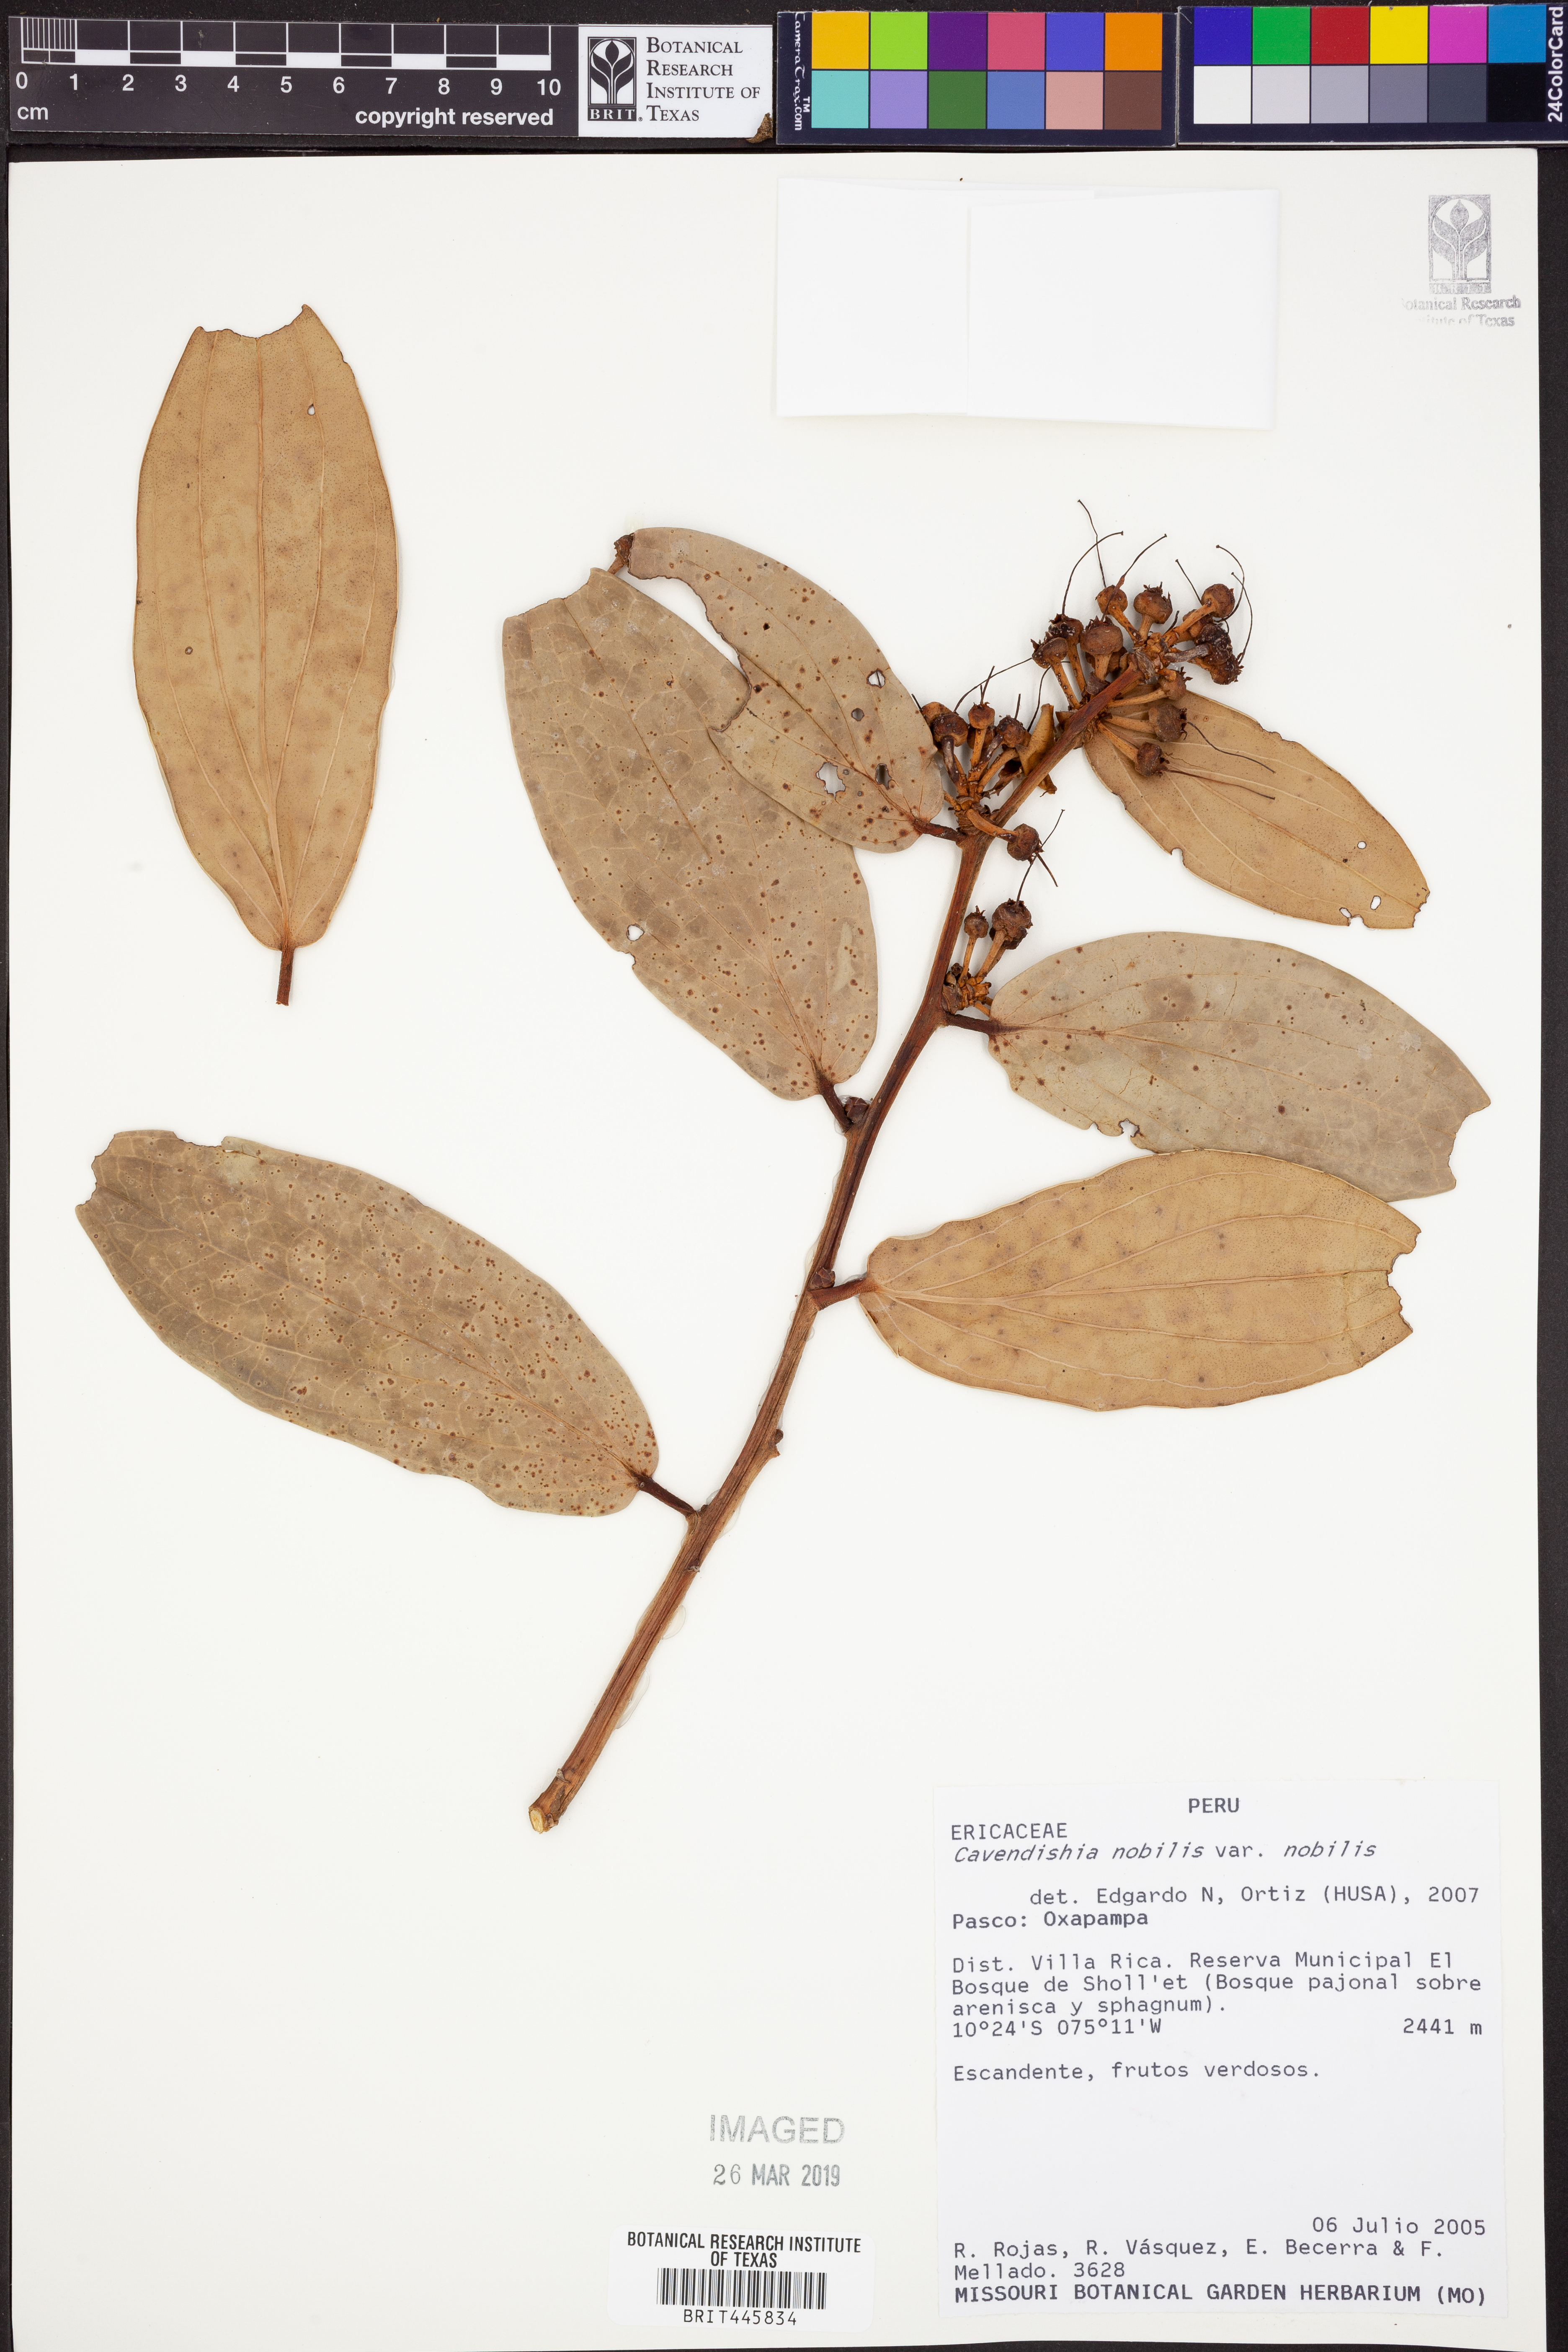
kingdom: Plantae
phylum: Tracheophyta
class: Magnoliopsida
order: Ericales
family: Ericaceae
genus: Cavendishia
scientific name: Cavendishia nobilis
